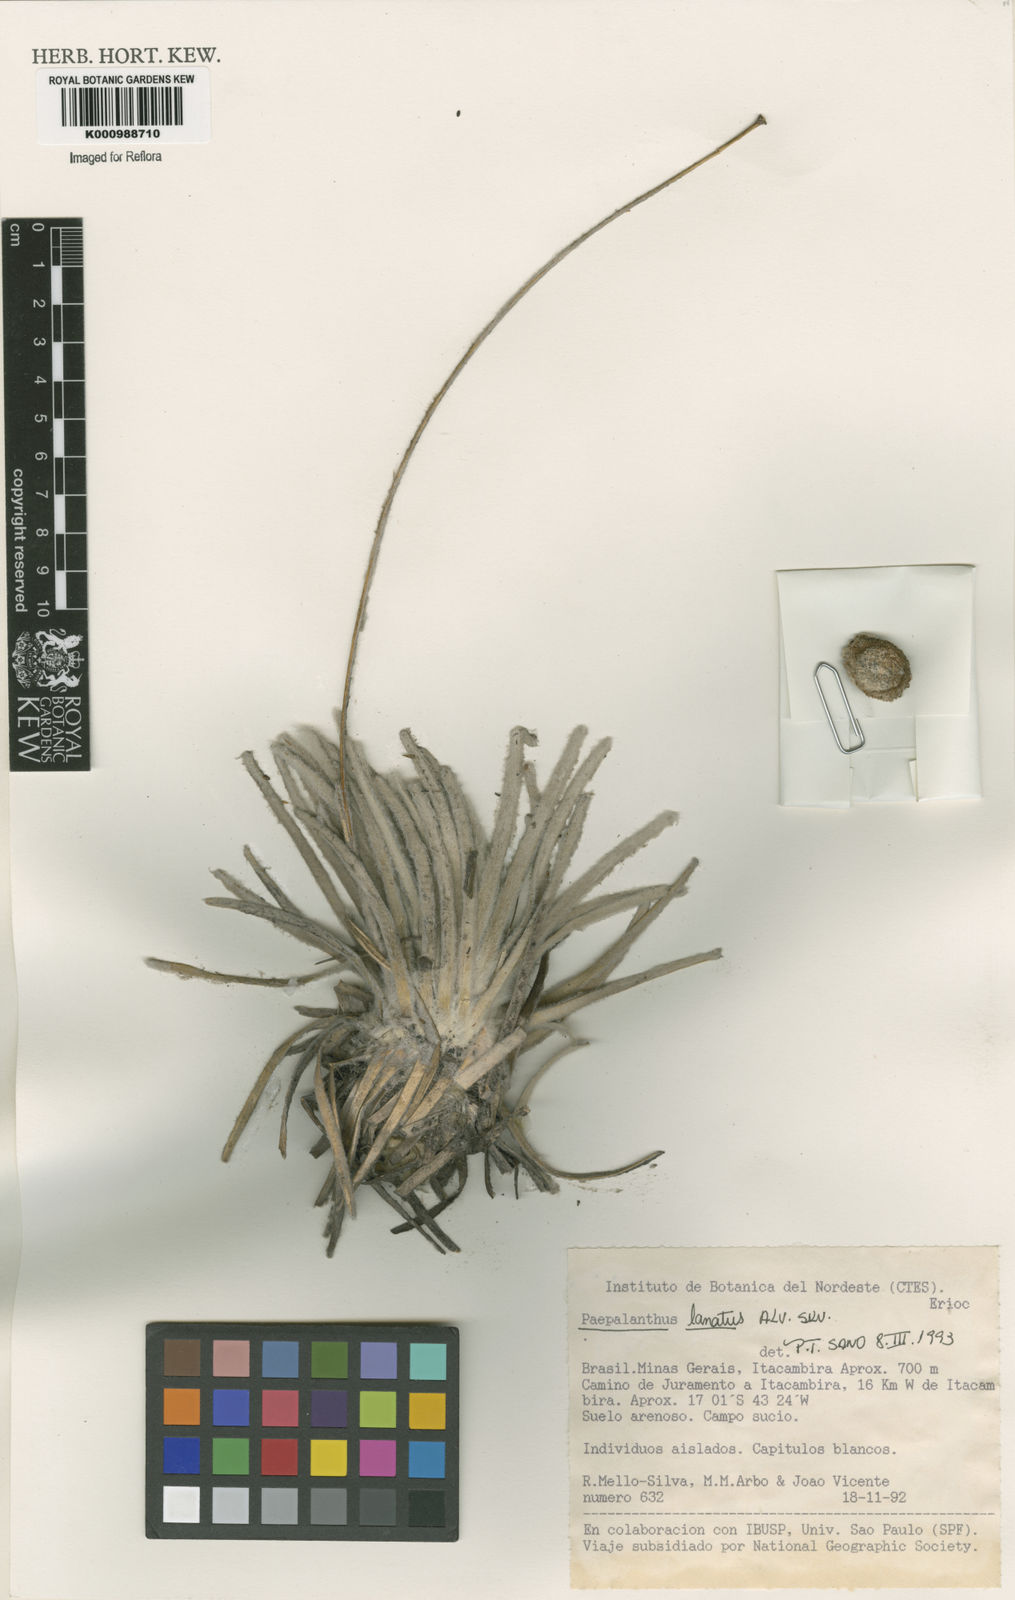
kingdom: Plantae
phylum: Tracheophyta
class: Liliopsida
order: Poales
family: Eriocaulaceae
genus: Paepalanthus
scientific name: Paepalanthus lanatus
